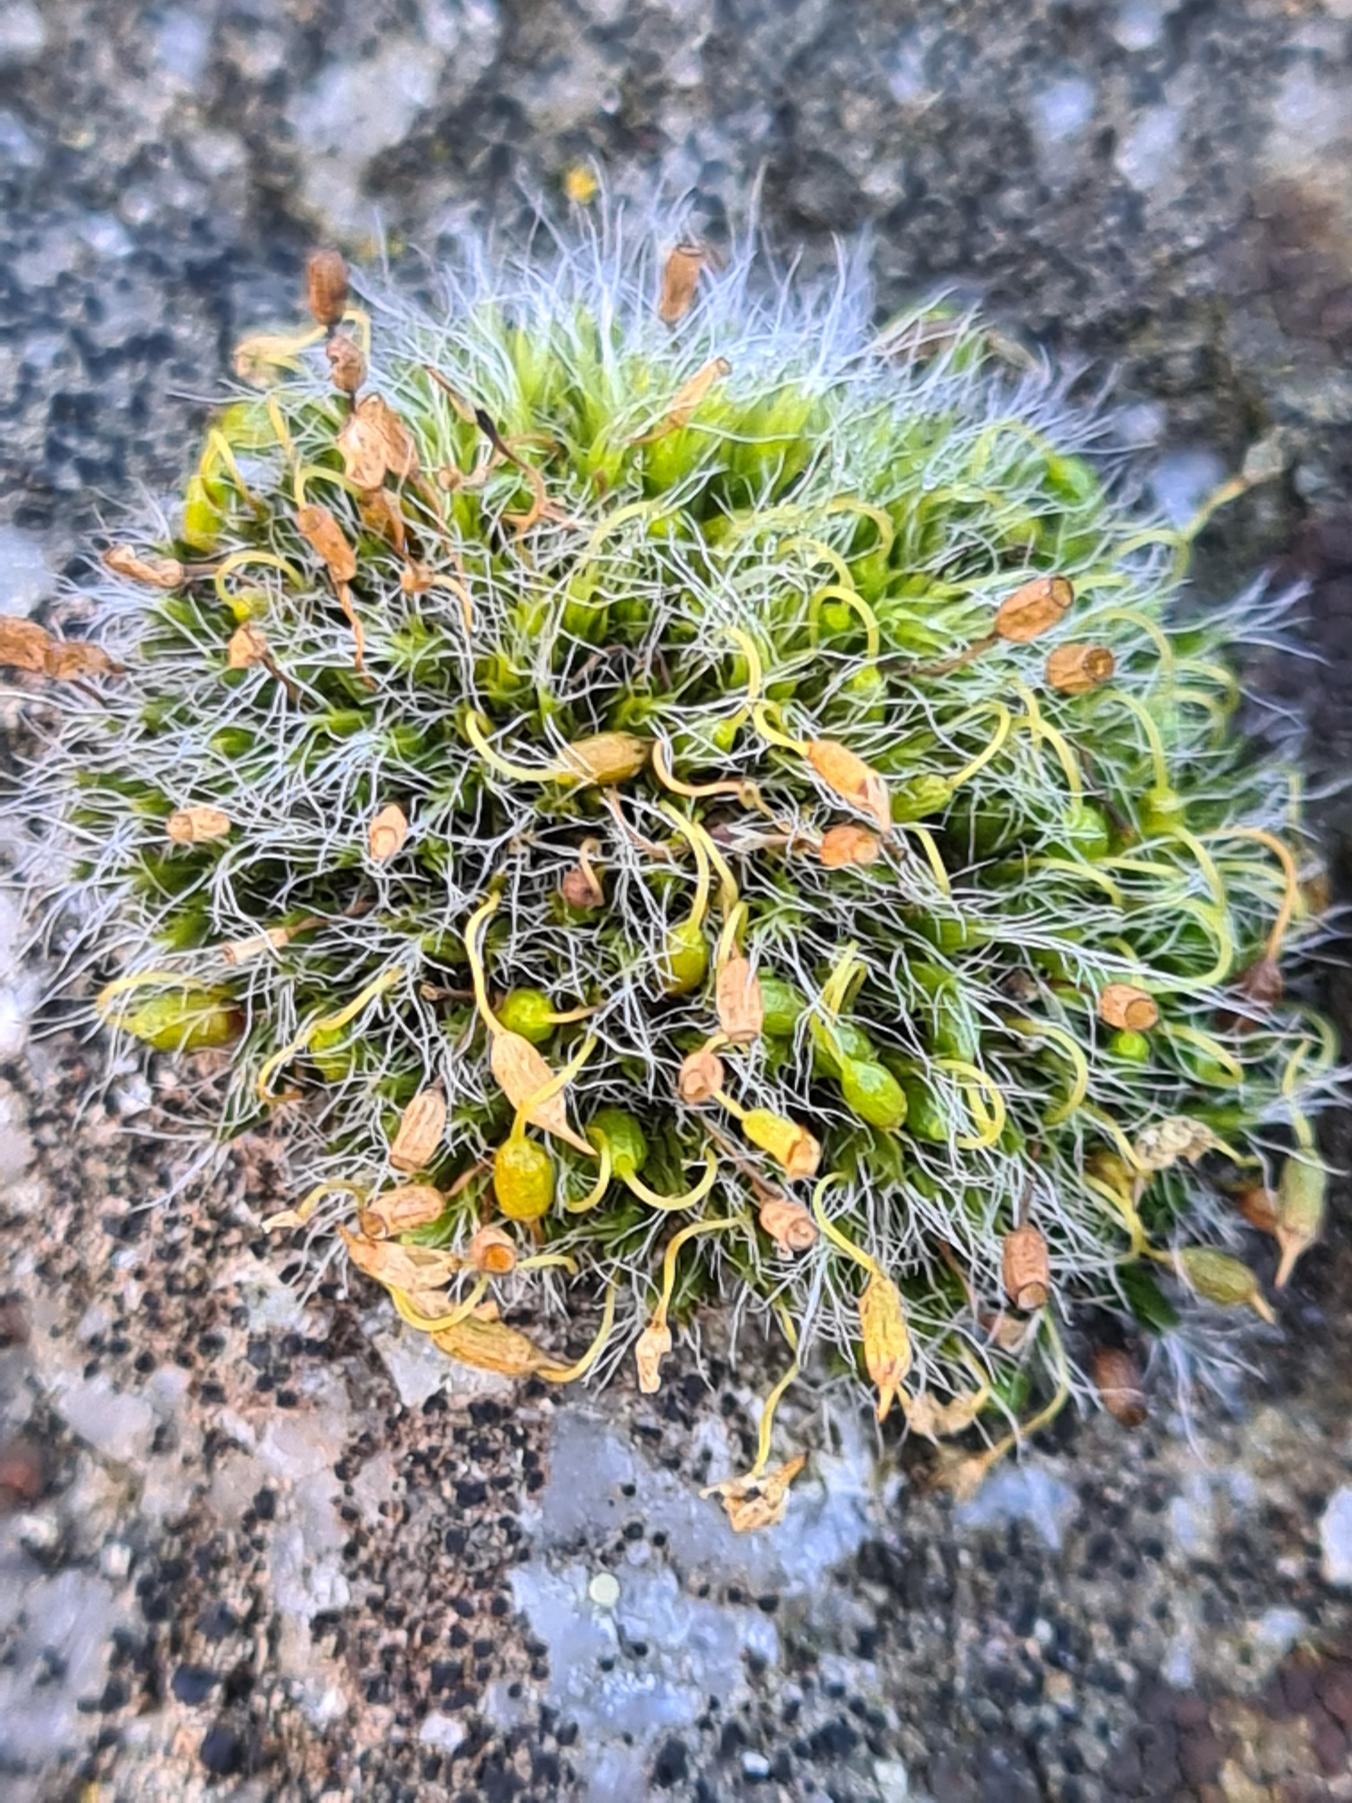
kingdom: Plantae
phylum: Bryophyta
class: Bryopsida
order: Grimmiales
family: Grimmiaceae
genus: Grimmia
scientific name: Grimmia pulvinata
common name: Pude-gråmos
